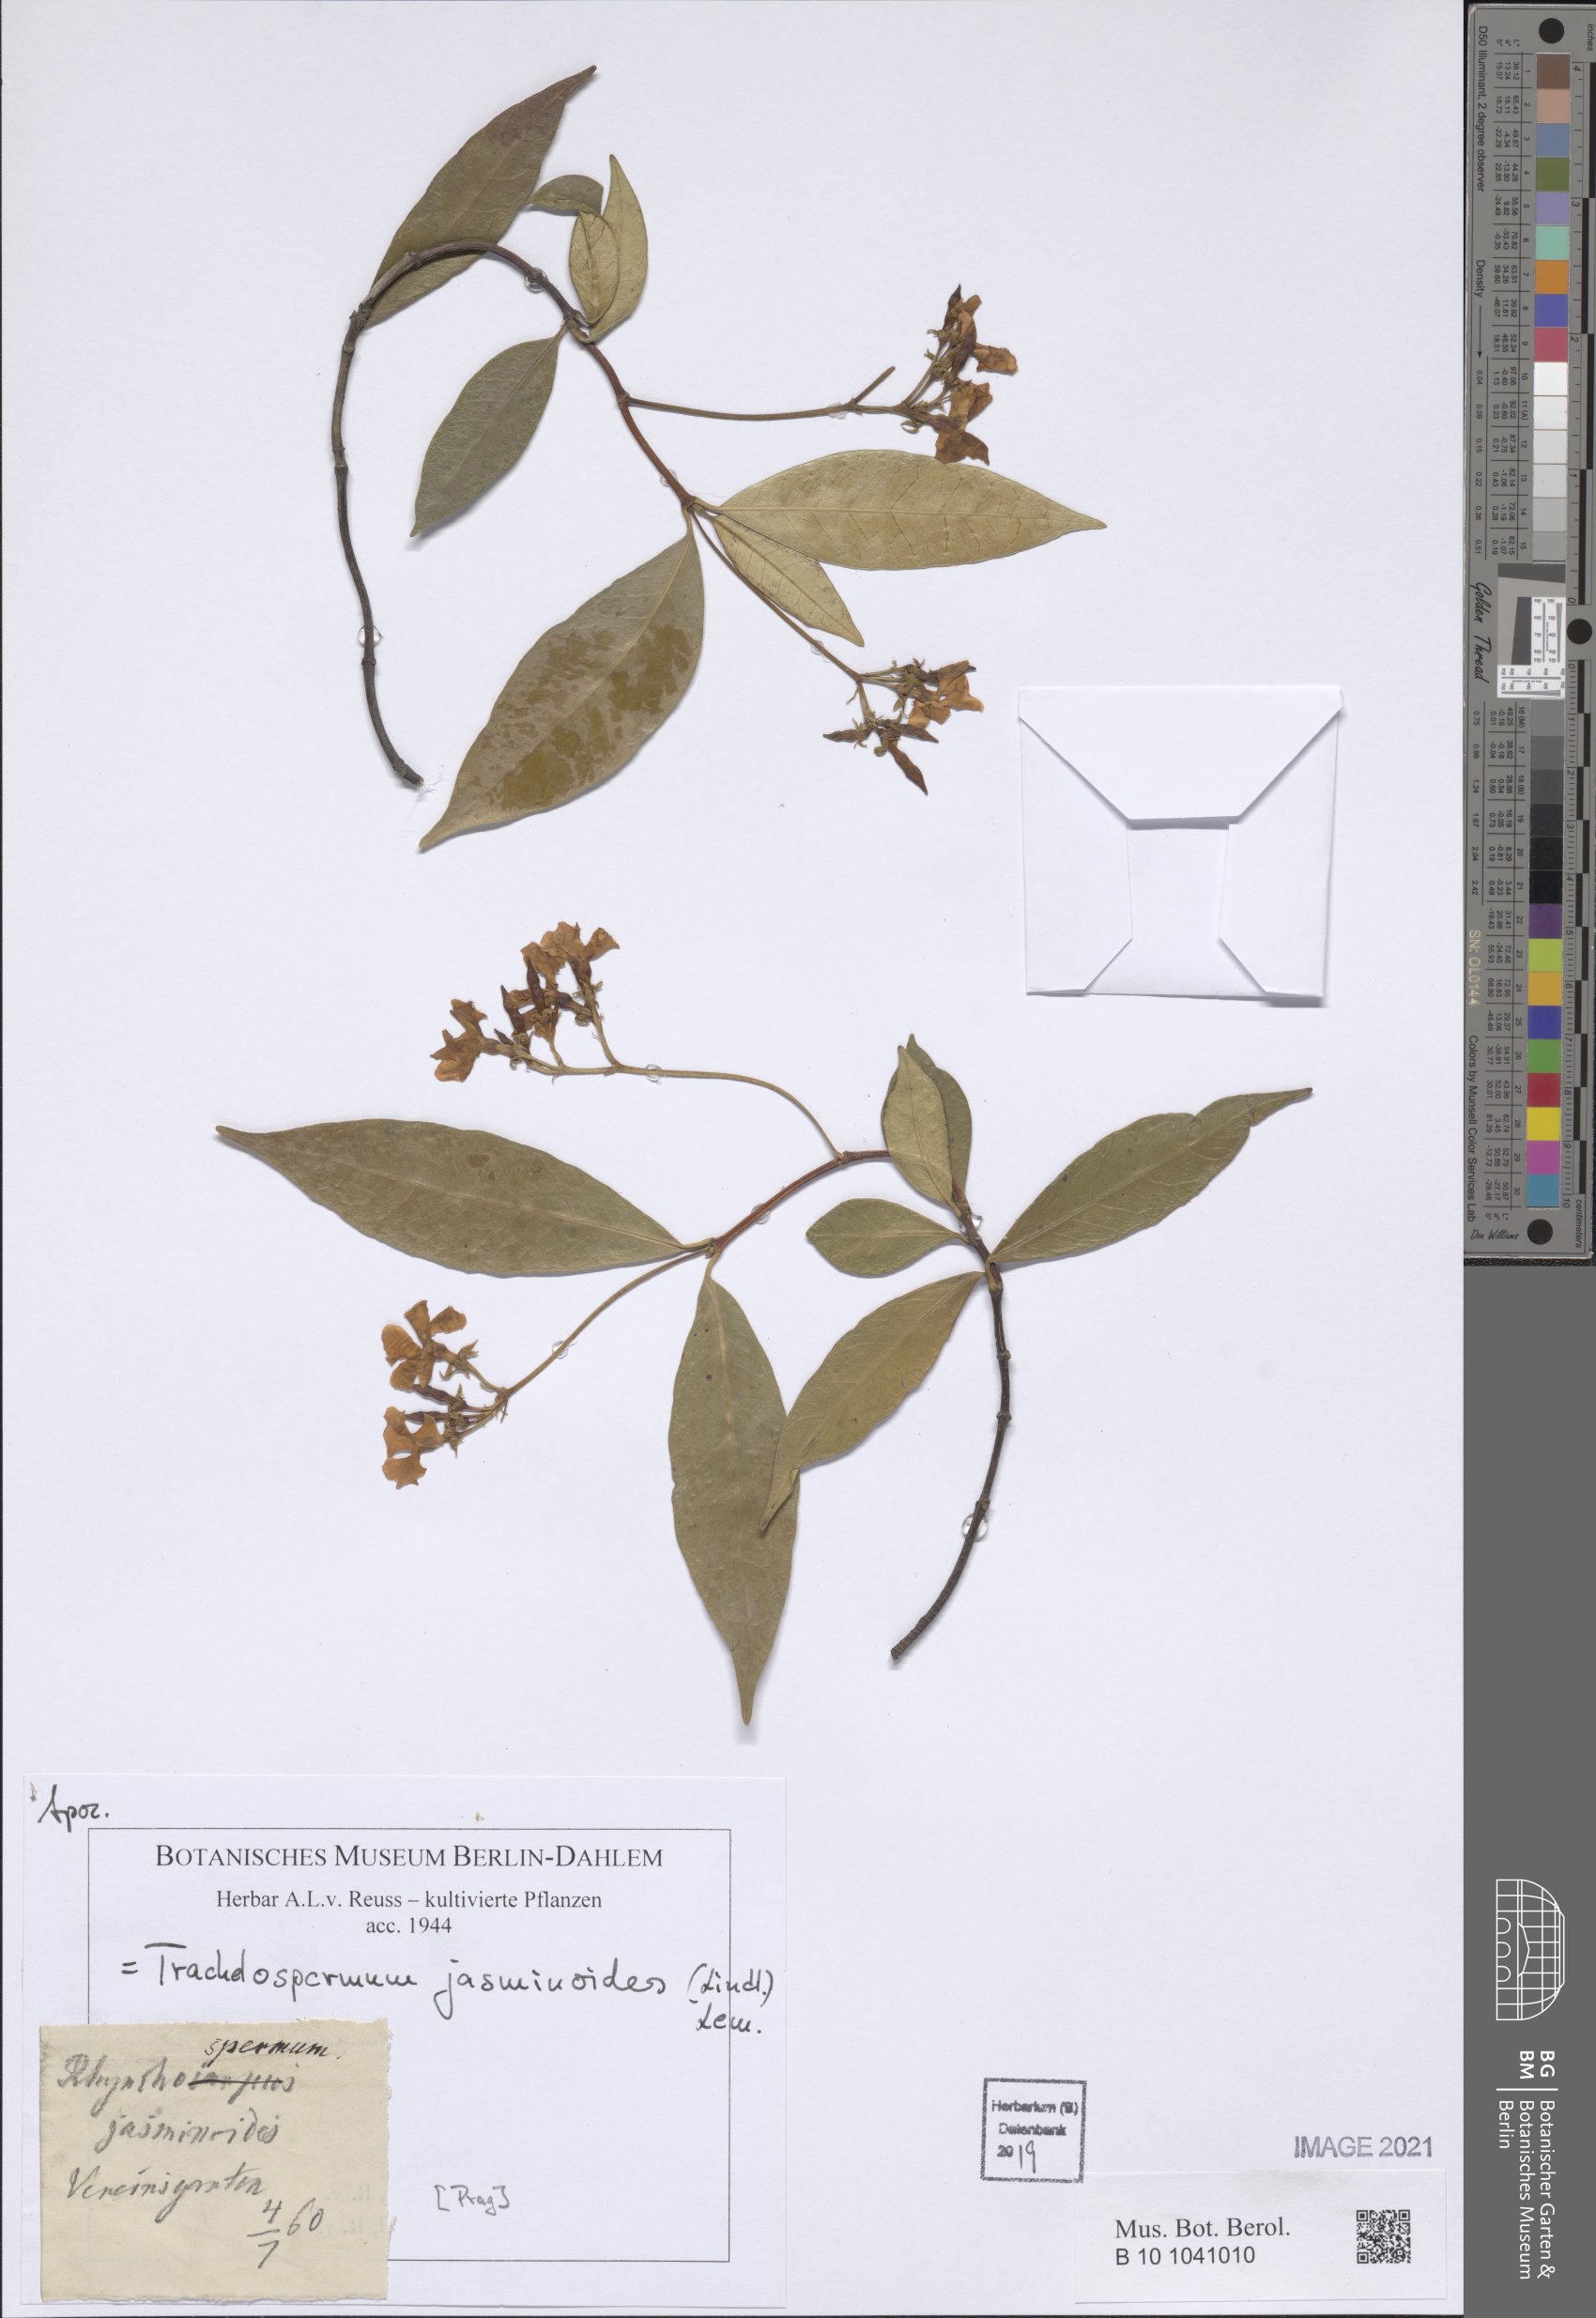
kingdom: Plantae
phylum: Tracheophyta
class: Magnoliopsida
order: Gentianales
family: Apocynaceae
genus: Trachelospermum
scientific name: Trachelospermum jasminoides
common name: Confederate jasmine
